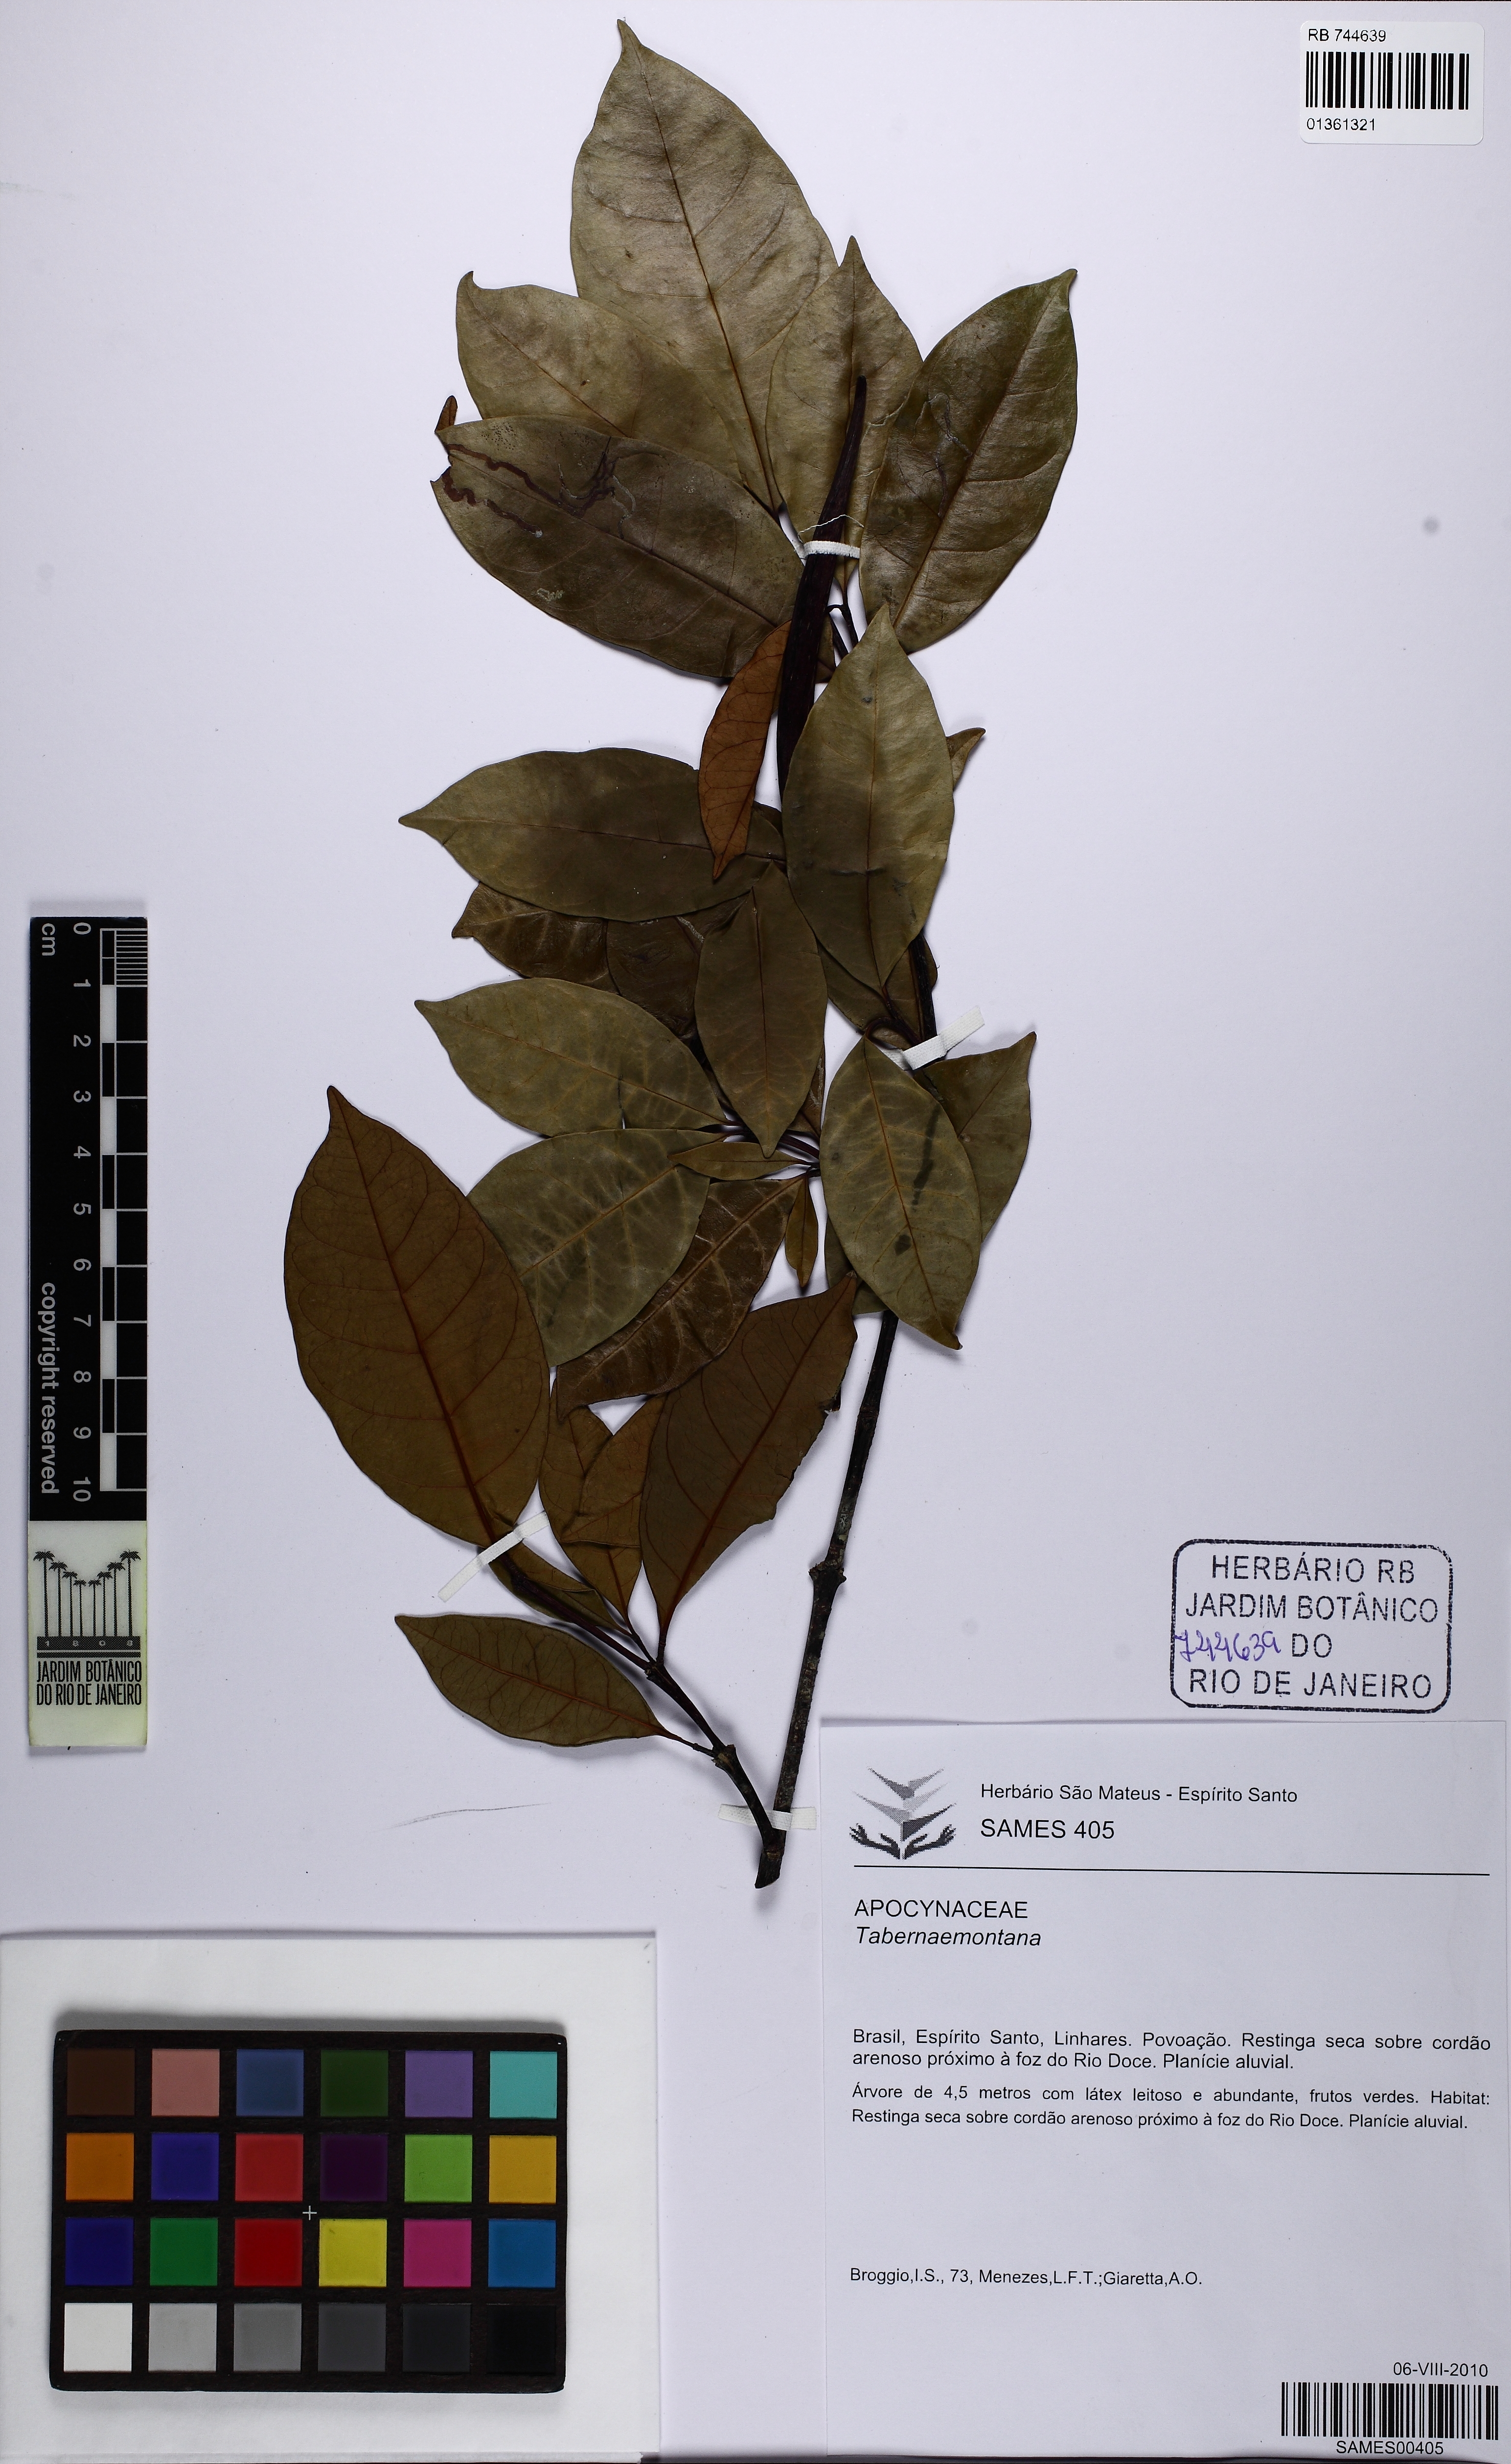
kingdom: Plantae
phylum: Tracheophyta
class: Magnoliopsida
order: Gentianales
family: Apocynaceae
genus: Tabernaemontana
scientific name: Tabernaemontana
